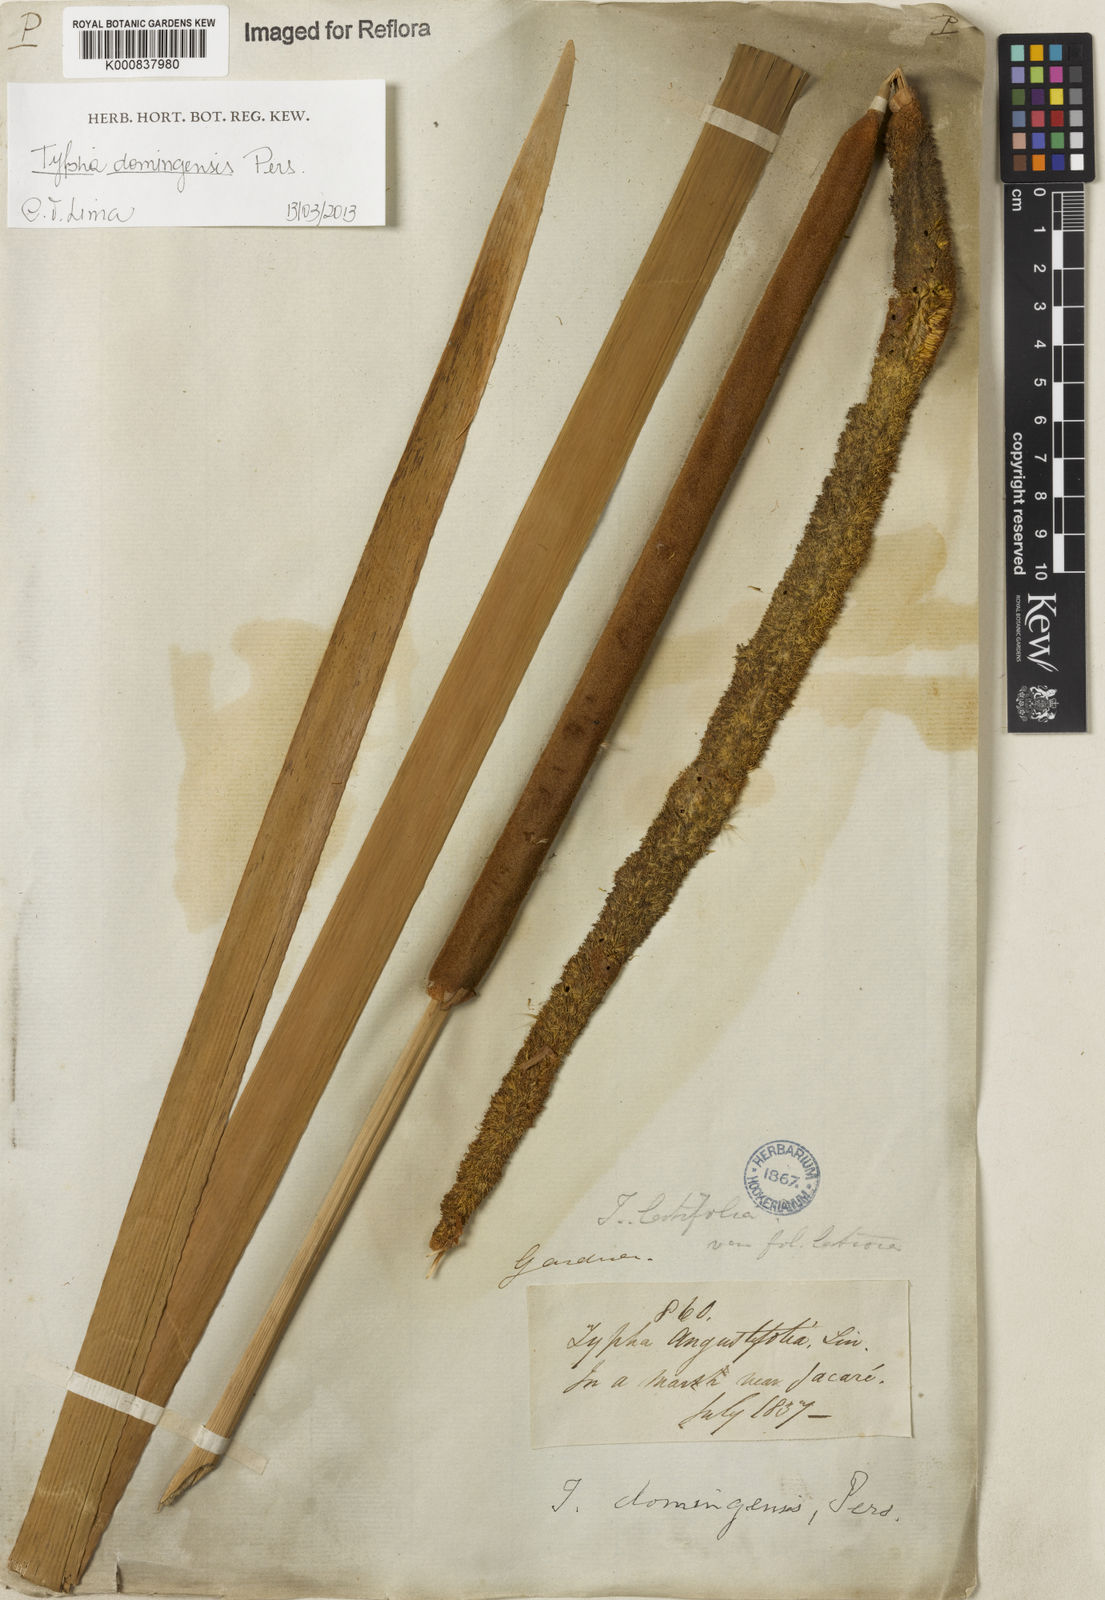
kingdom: Plantae
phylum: Tracheophyta
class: Liliopsida
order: Poales
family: Typhaceae
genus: Typha
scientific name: Typha
